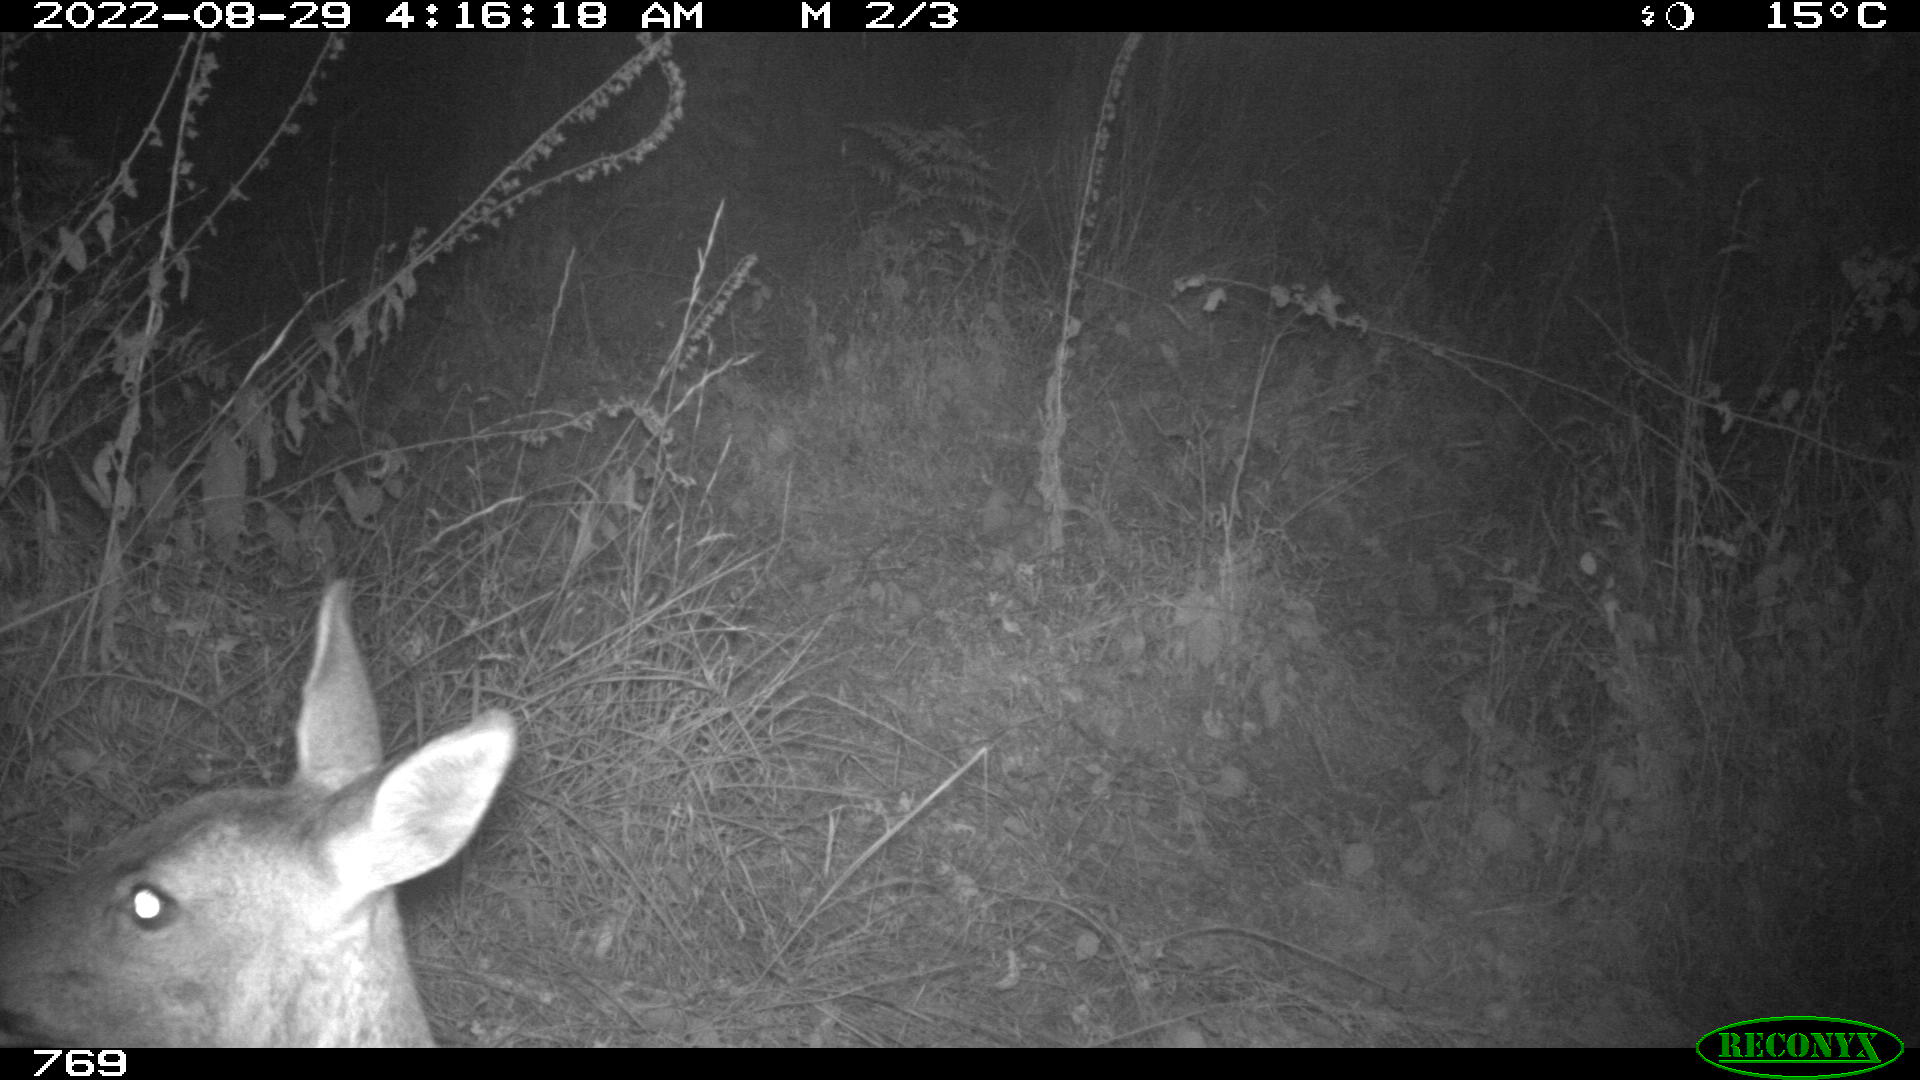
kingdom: Animalia
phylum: Chordata
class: Mammalia
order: Artiodactyla
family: Cervidae
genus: Capreolus
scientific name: Capreolus capreolus
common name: Western roe deer
